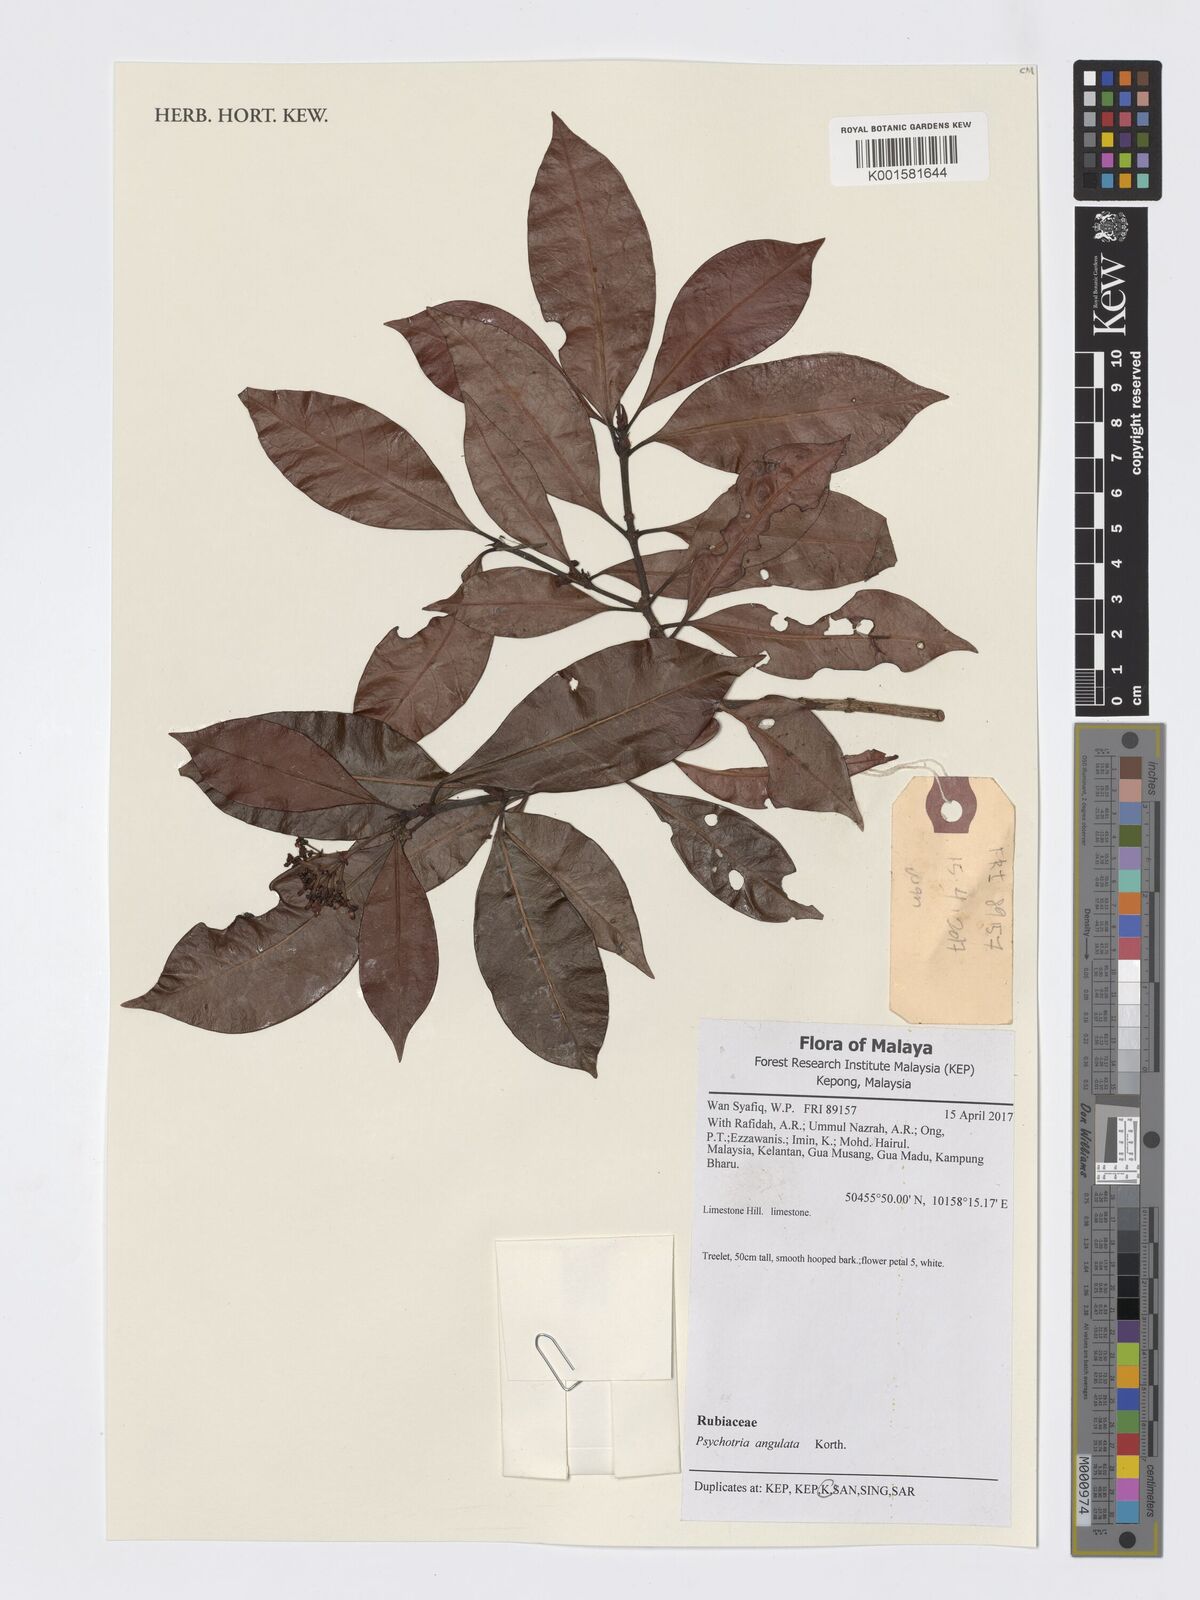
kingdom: Plantae
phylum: Tracheophyta
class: Magnoliopsida
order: Gentianales
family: Rubiaceae
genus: Psychotria
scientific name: Psychotria angulata
